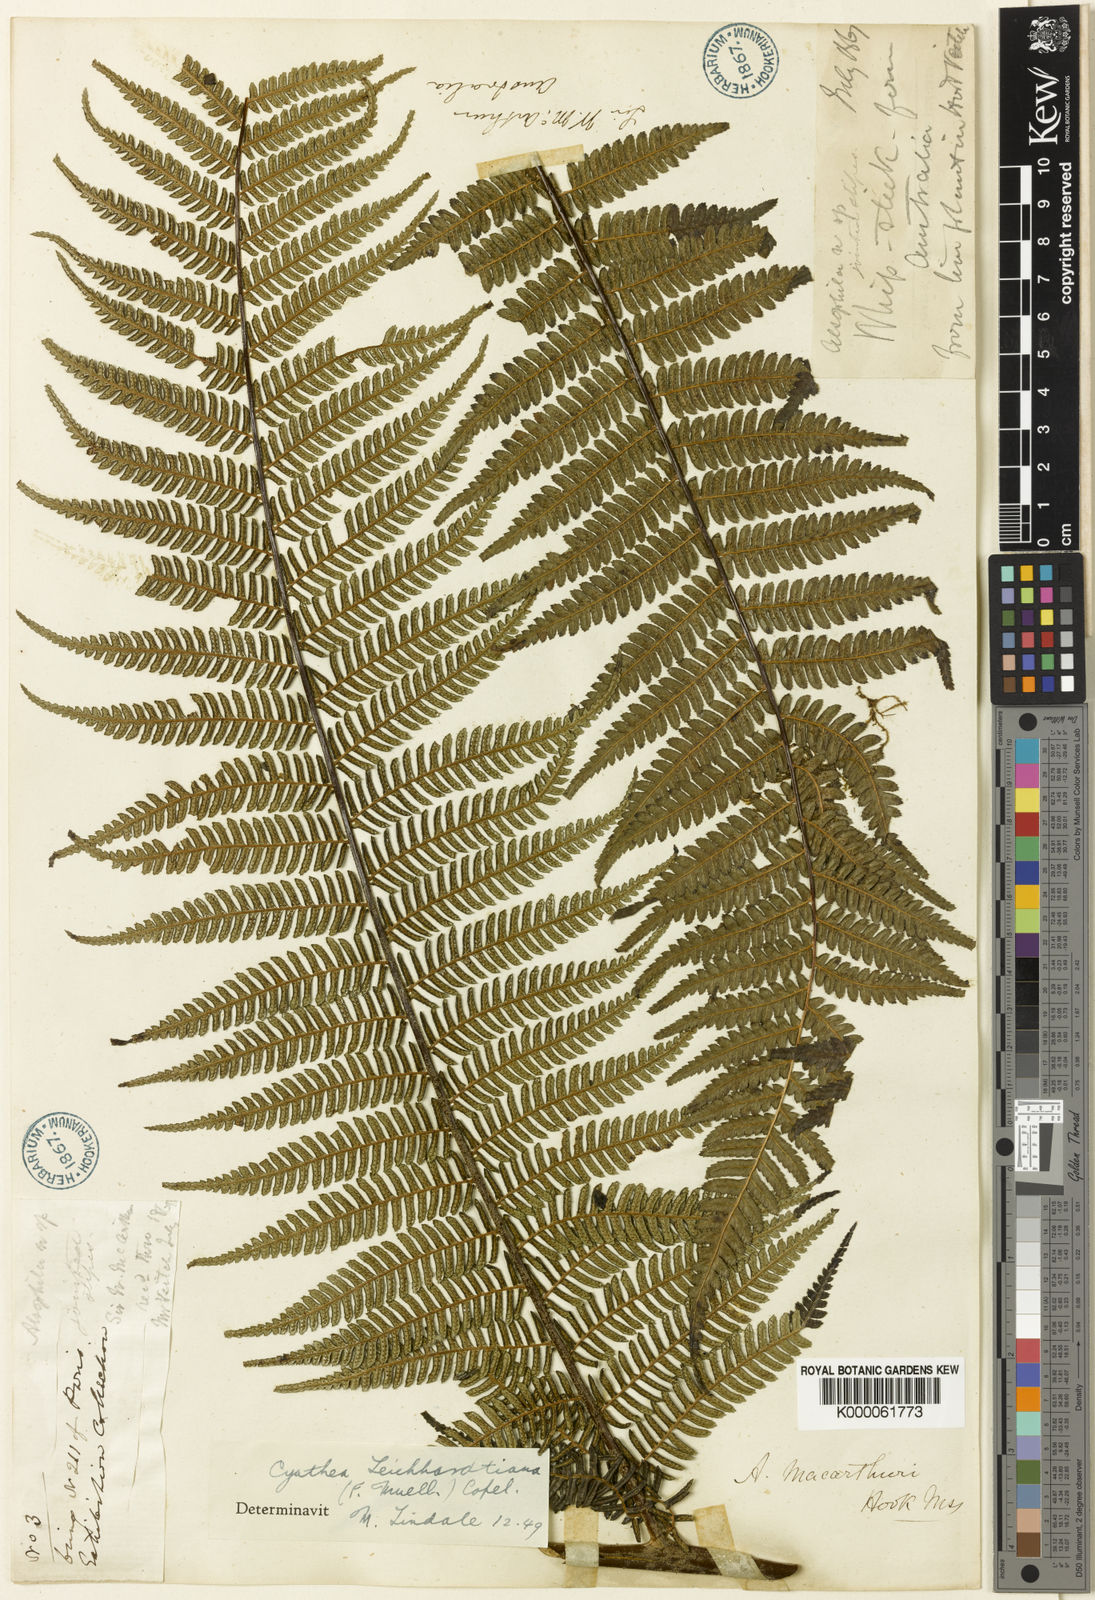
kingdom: Plantae
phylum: Tracheophyta
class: Polypodiopsida
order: Cyatheales
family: Cyatheaceae
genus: Alsophila
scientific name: Alsophila leichhardtiana
